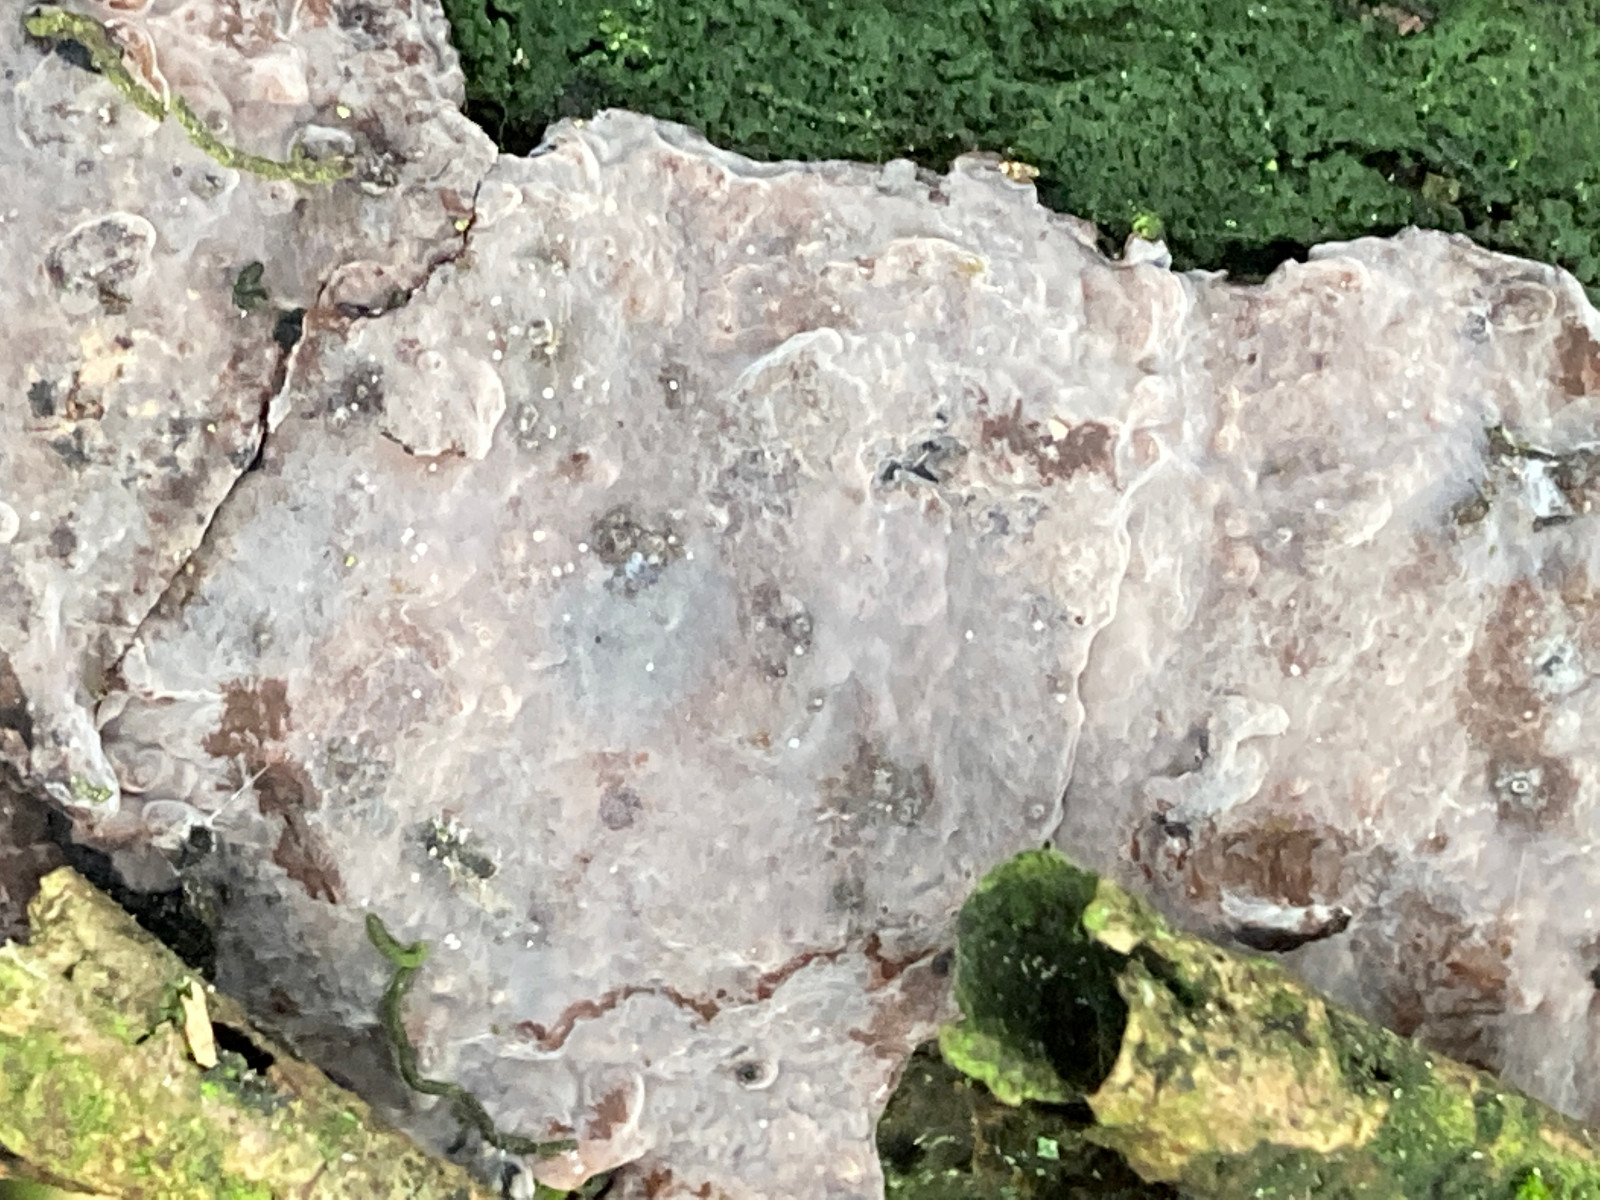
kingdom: Fungi
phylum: Basidiomycota
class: Agaricomycetes
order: Russulales
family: Peniophoraceae
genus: Peniophora
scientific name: Peniophora quercina
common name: ege-voksskind
